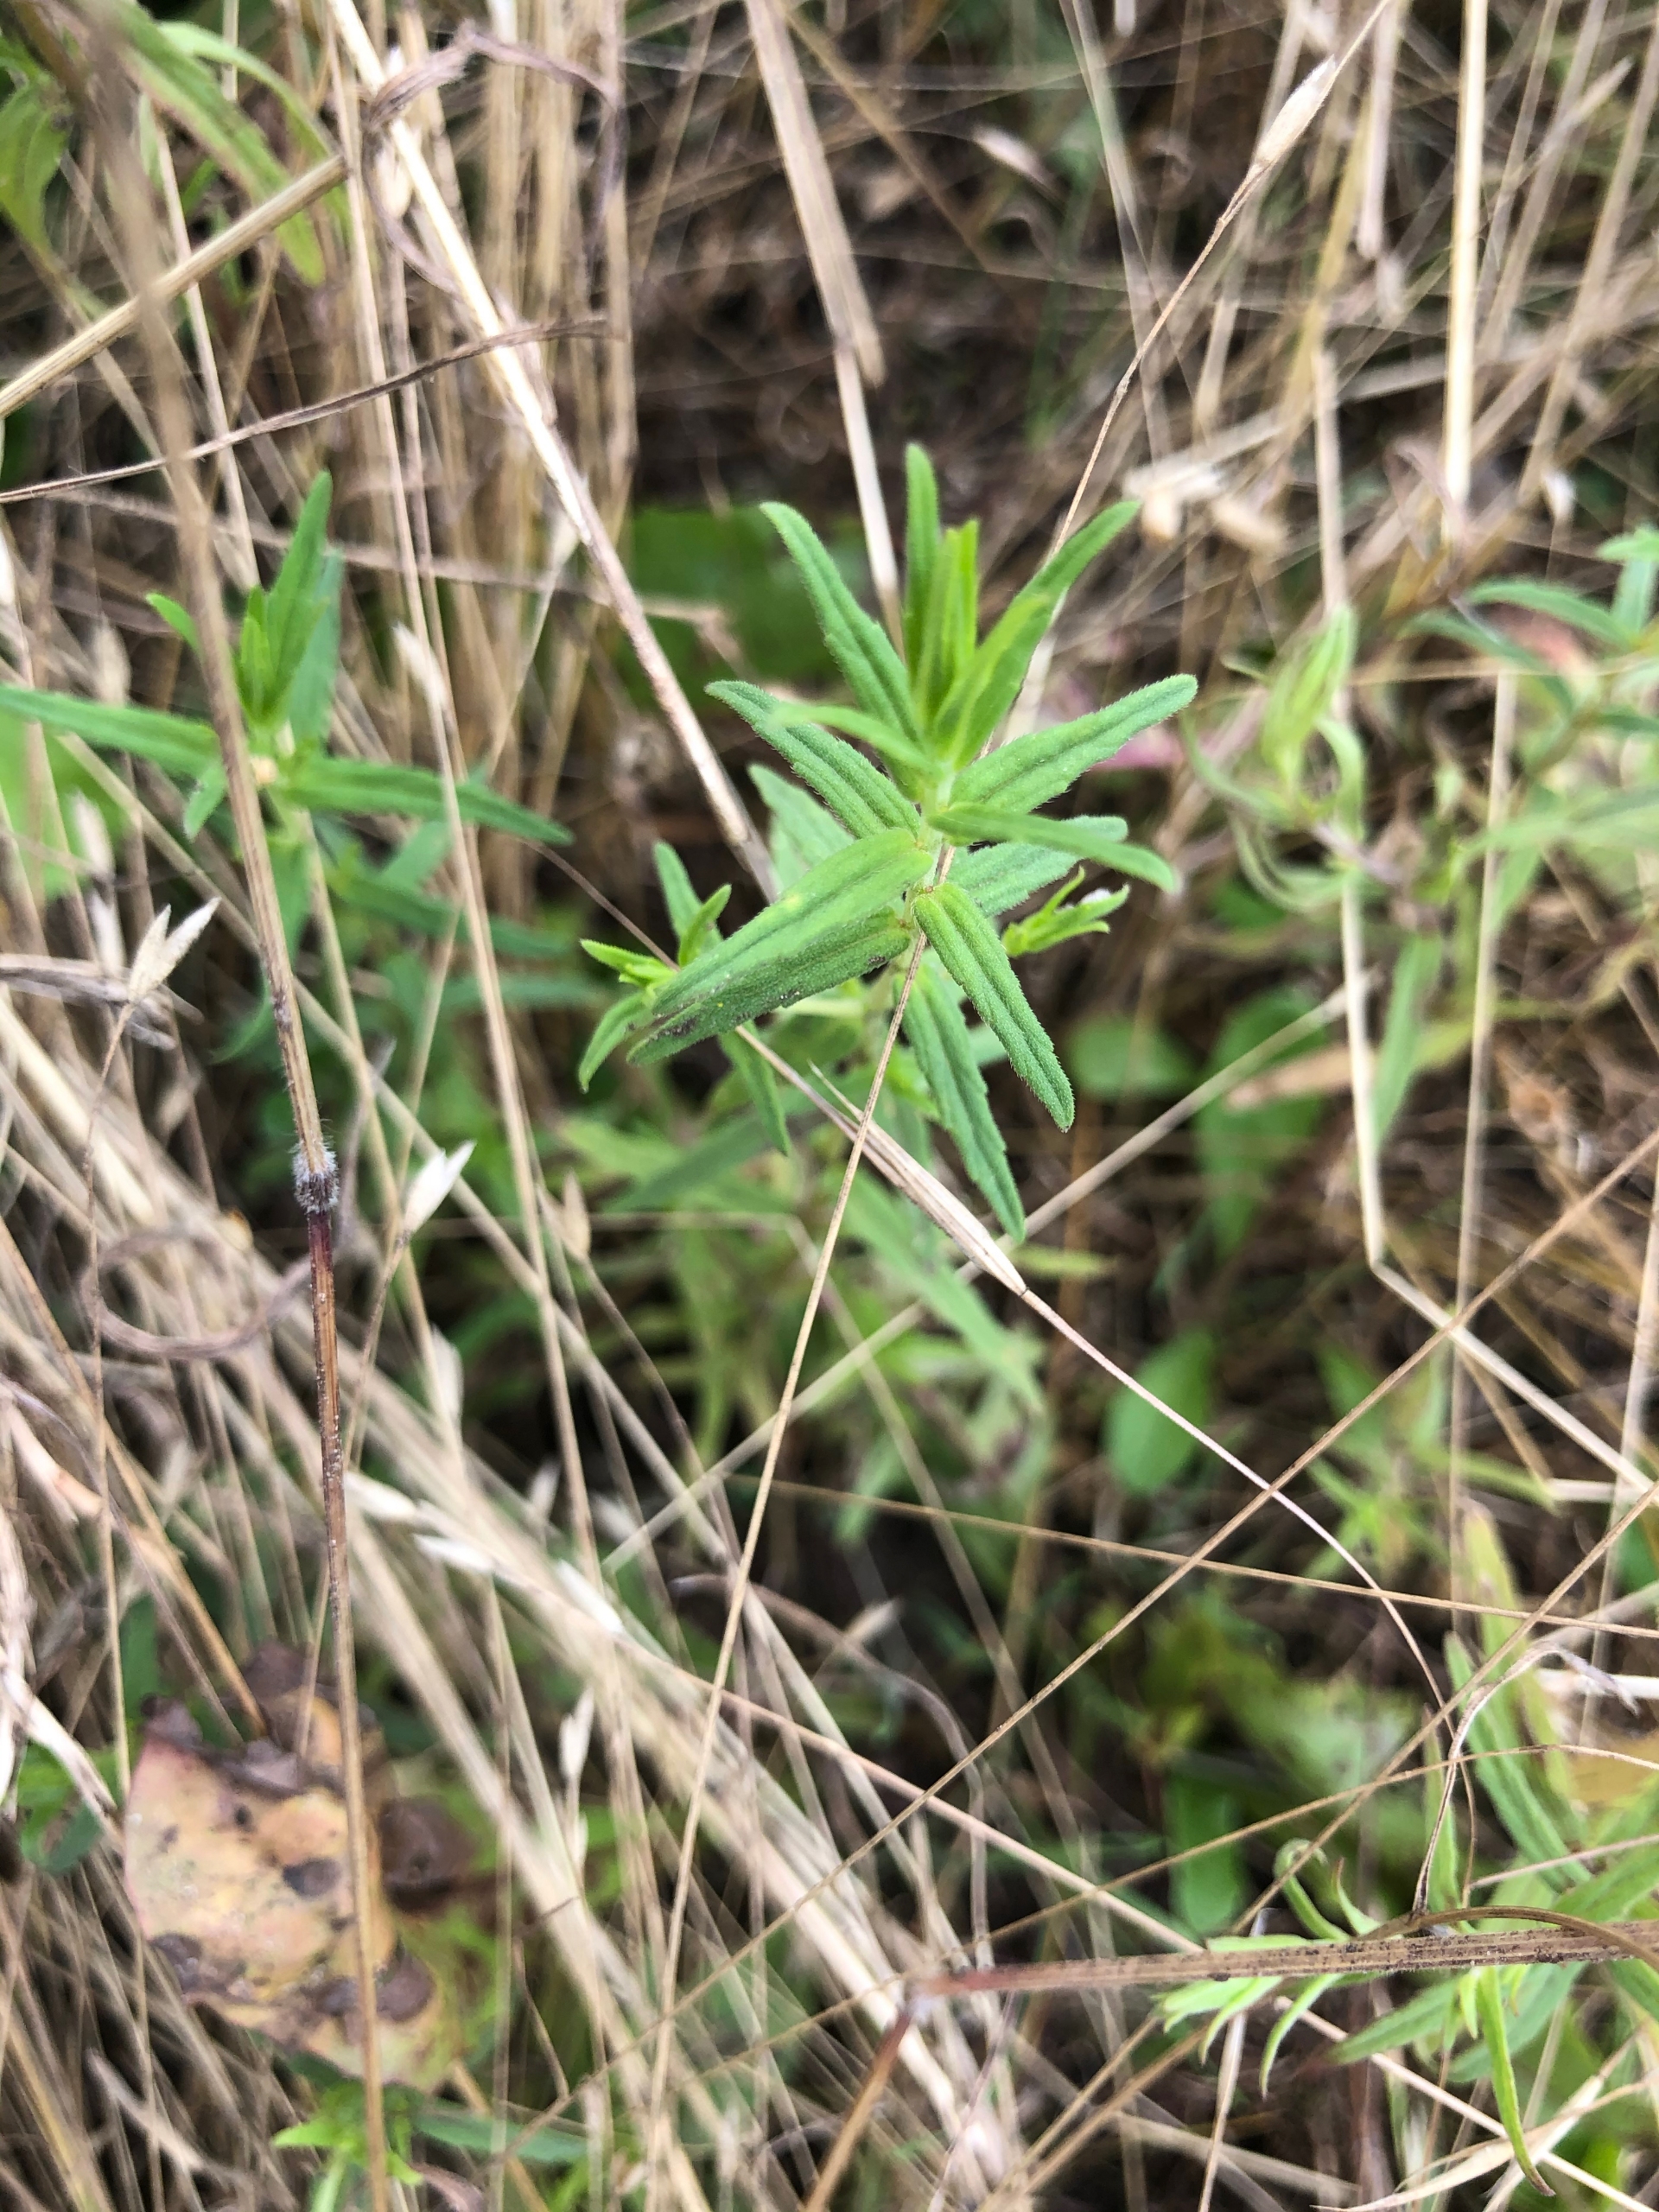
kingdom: Plantae
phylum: Tracheophyta
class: Magnoliopsida
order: Lamiales
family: Orobanchaceae
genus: Odontites
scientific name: Odontites vernus
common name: Mark-rødtop
